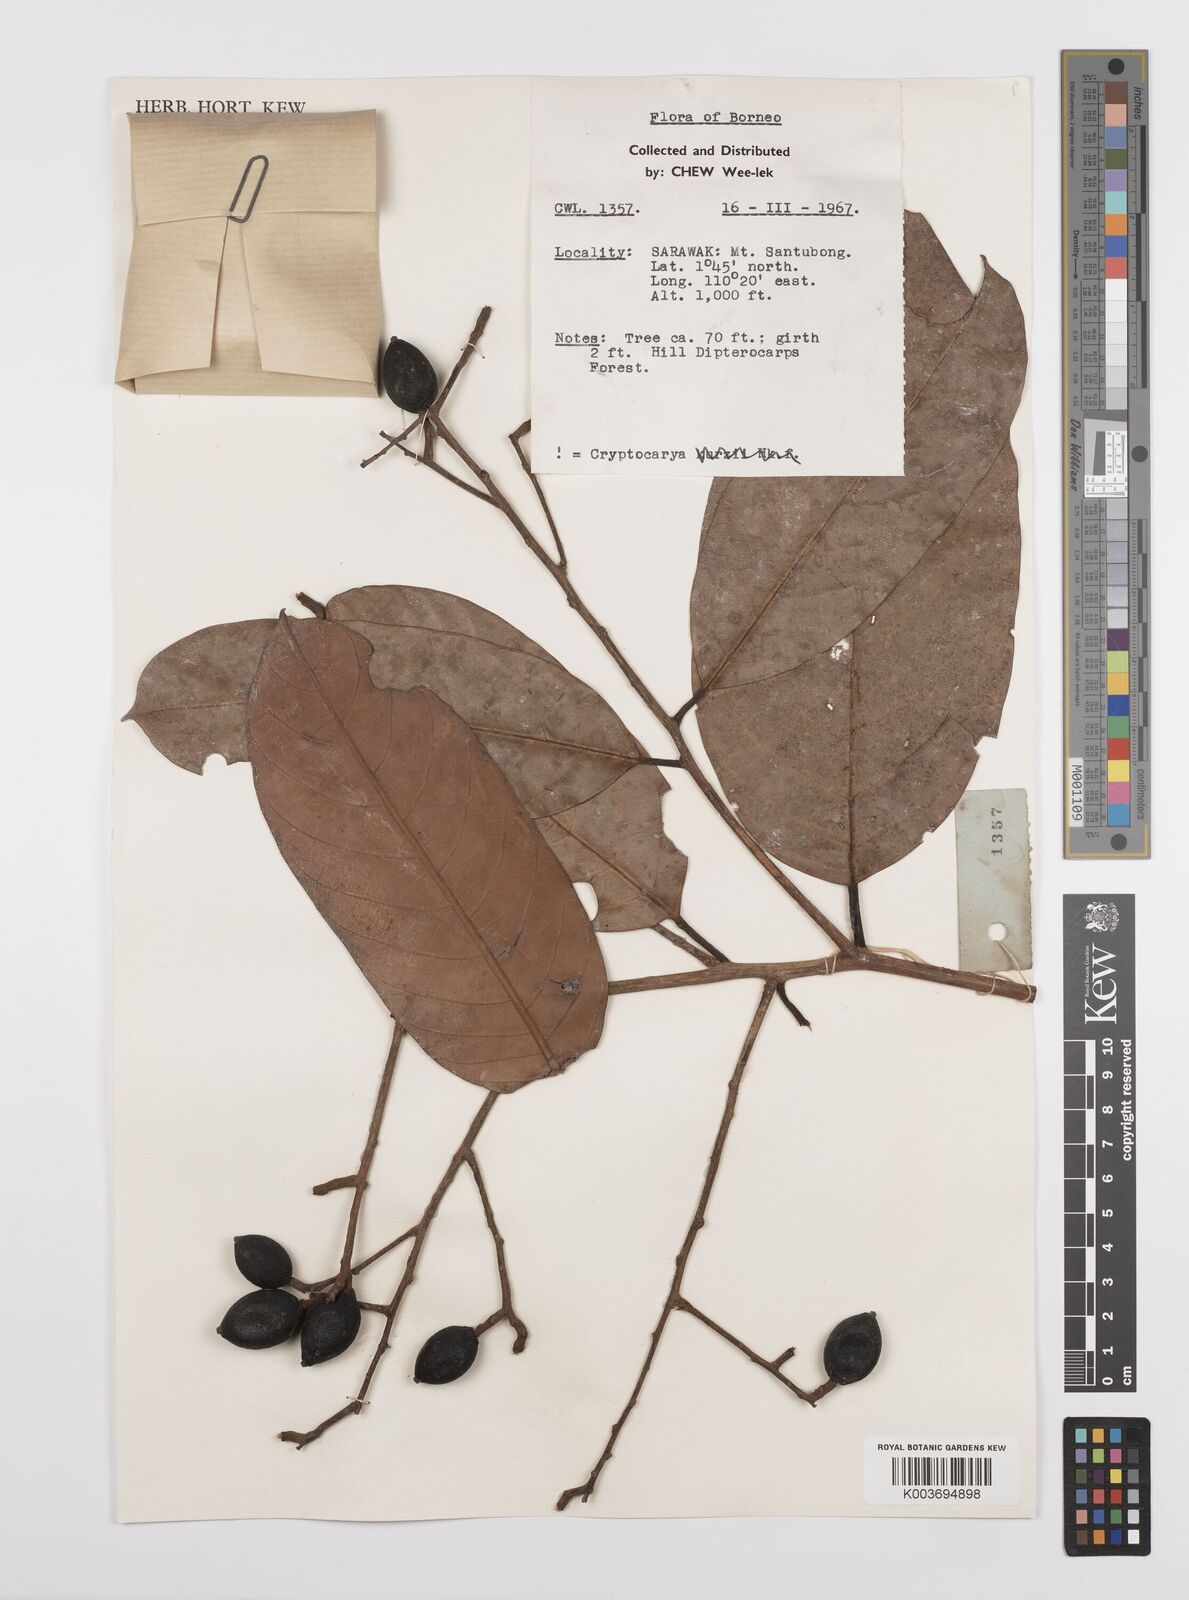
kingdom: Plantae
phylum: Tracheophyta
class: Magnoliopsida
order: Laurales
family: Lauraceae
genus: Cryptocarya
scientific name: Cryptocarya
